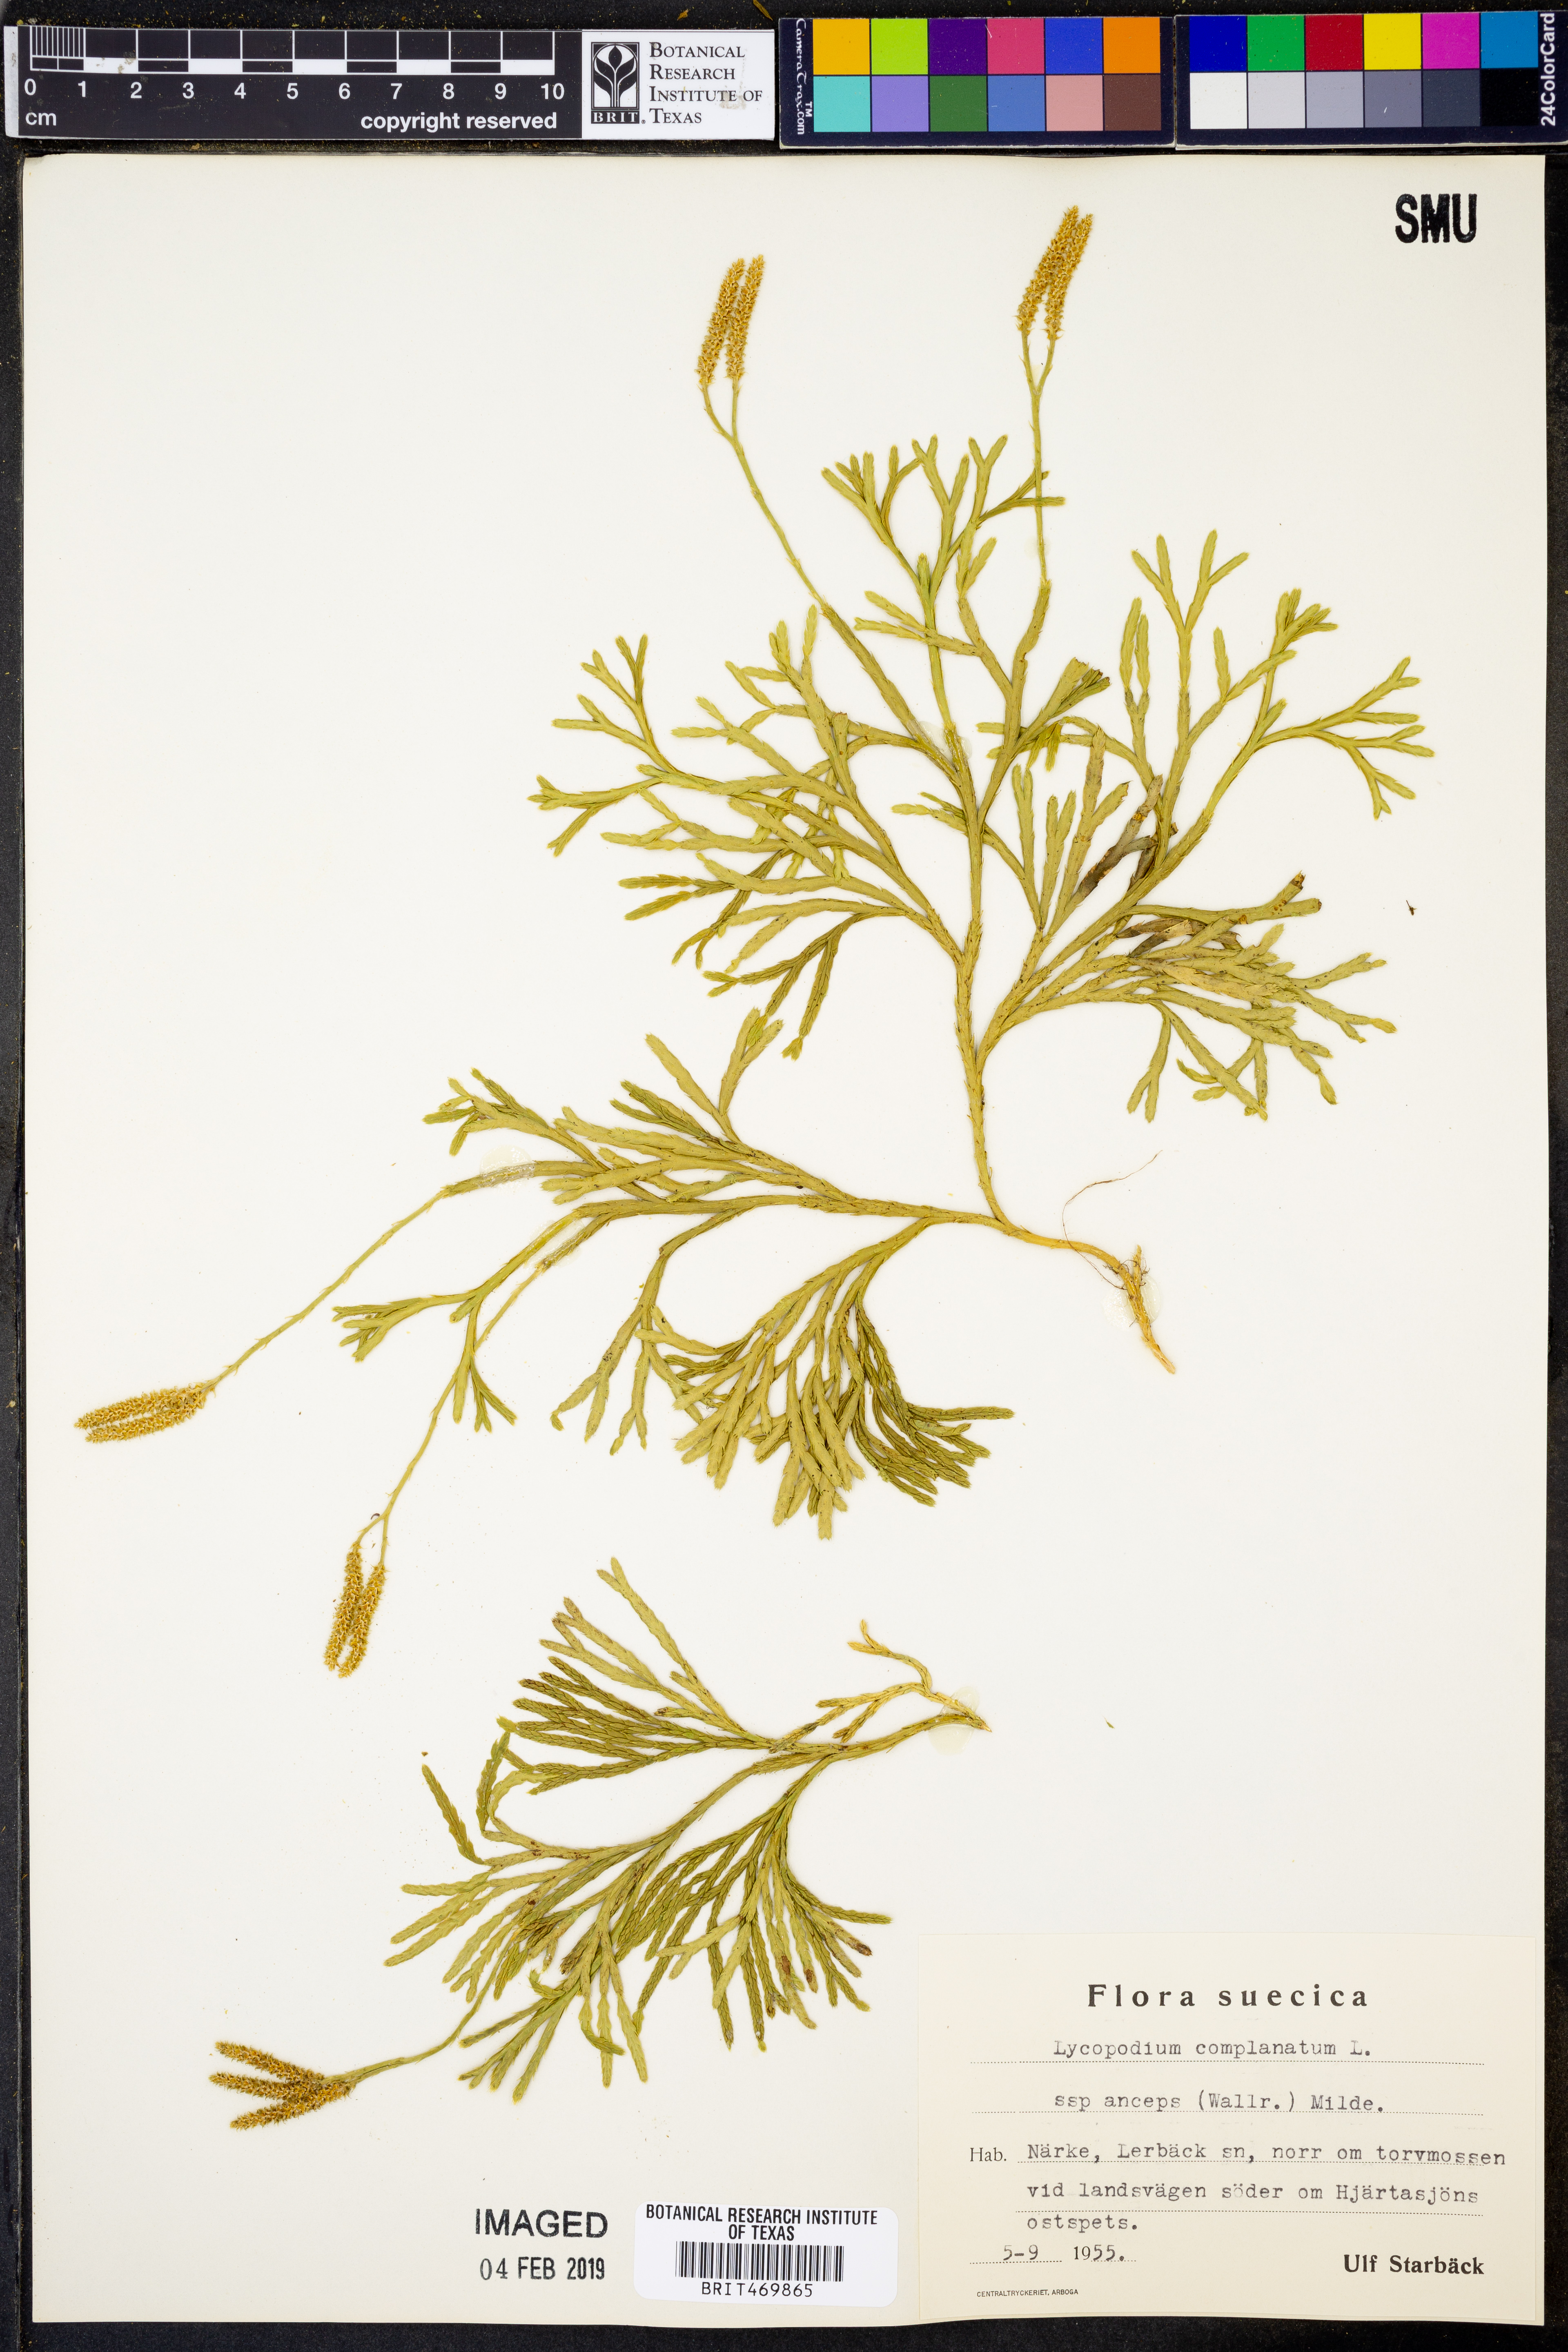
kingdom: Plantae
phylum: Tracheophyta
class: Lycopodiopsida
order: Lycopodiales
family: Lycopodiaceae
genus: Diphasiastrum
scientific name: Diphasiastrum complanatum
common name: Northern running-pine
